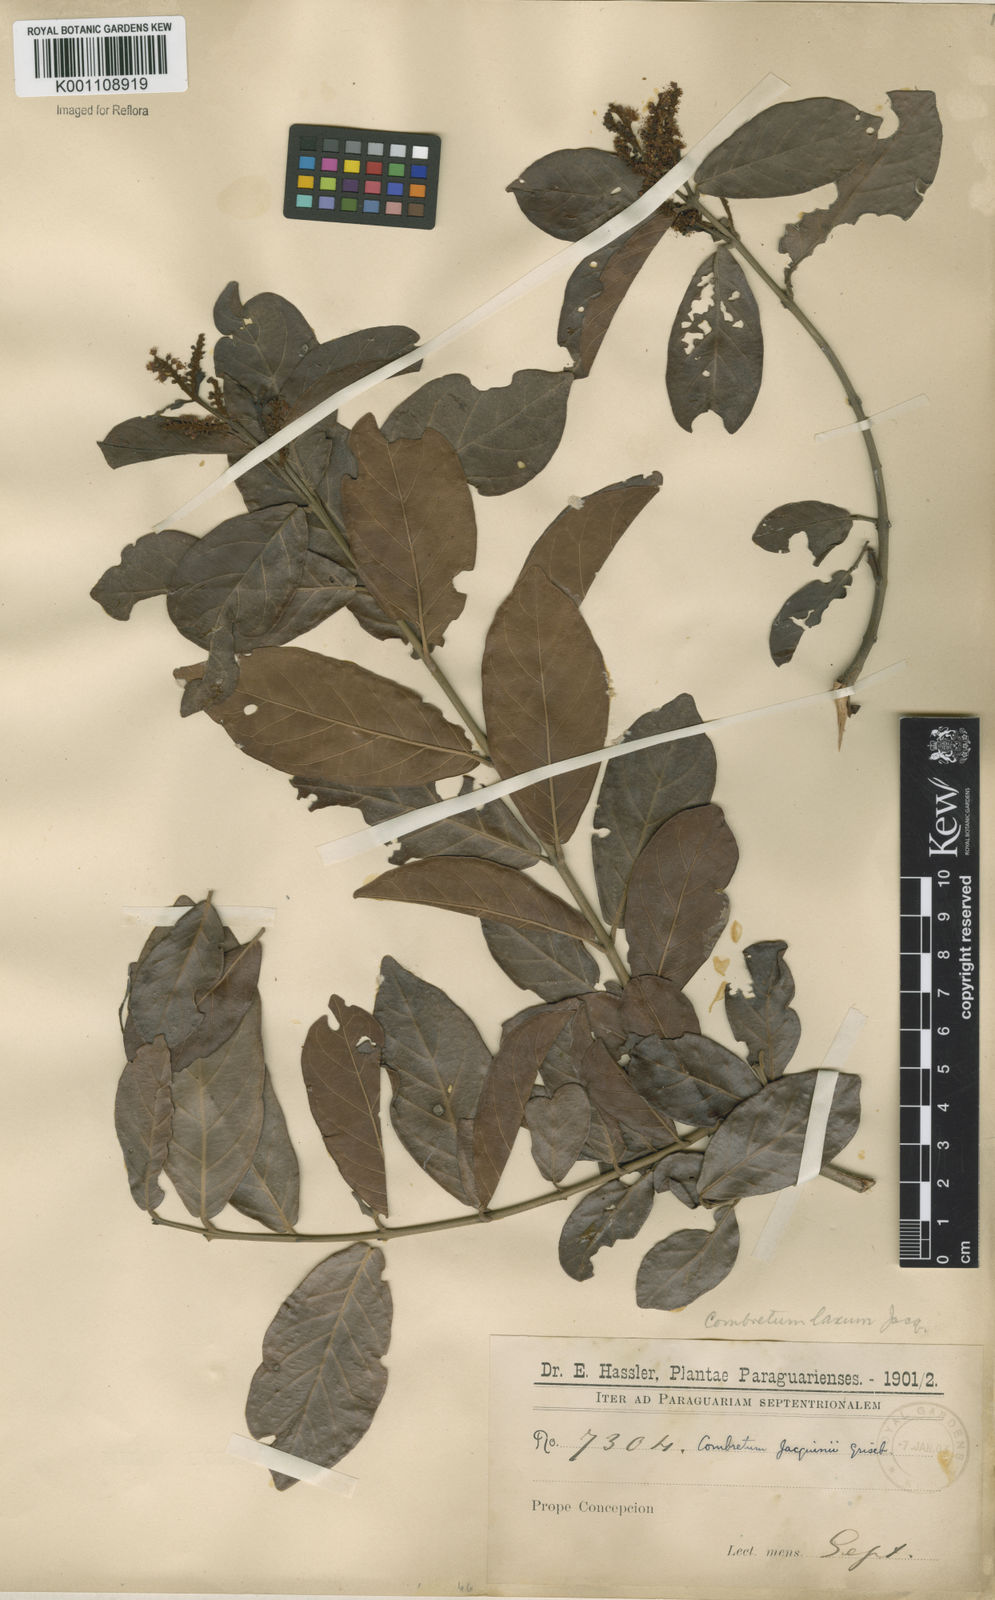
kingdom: Plantae
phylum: Tracheophyta
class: Magnoliopsida
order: Myrtales
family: Combretaceae
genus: Combretum
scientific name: Combretum laxum
